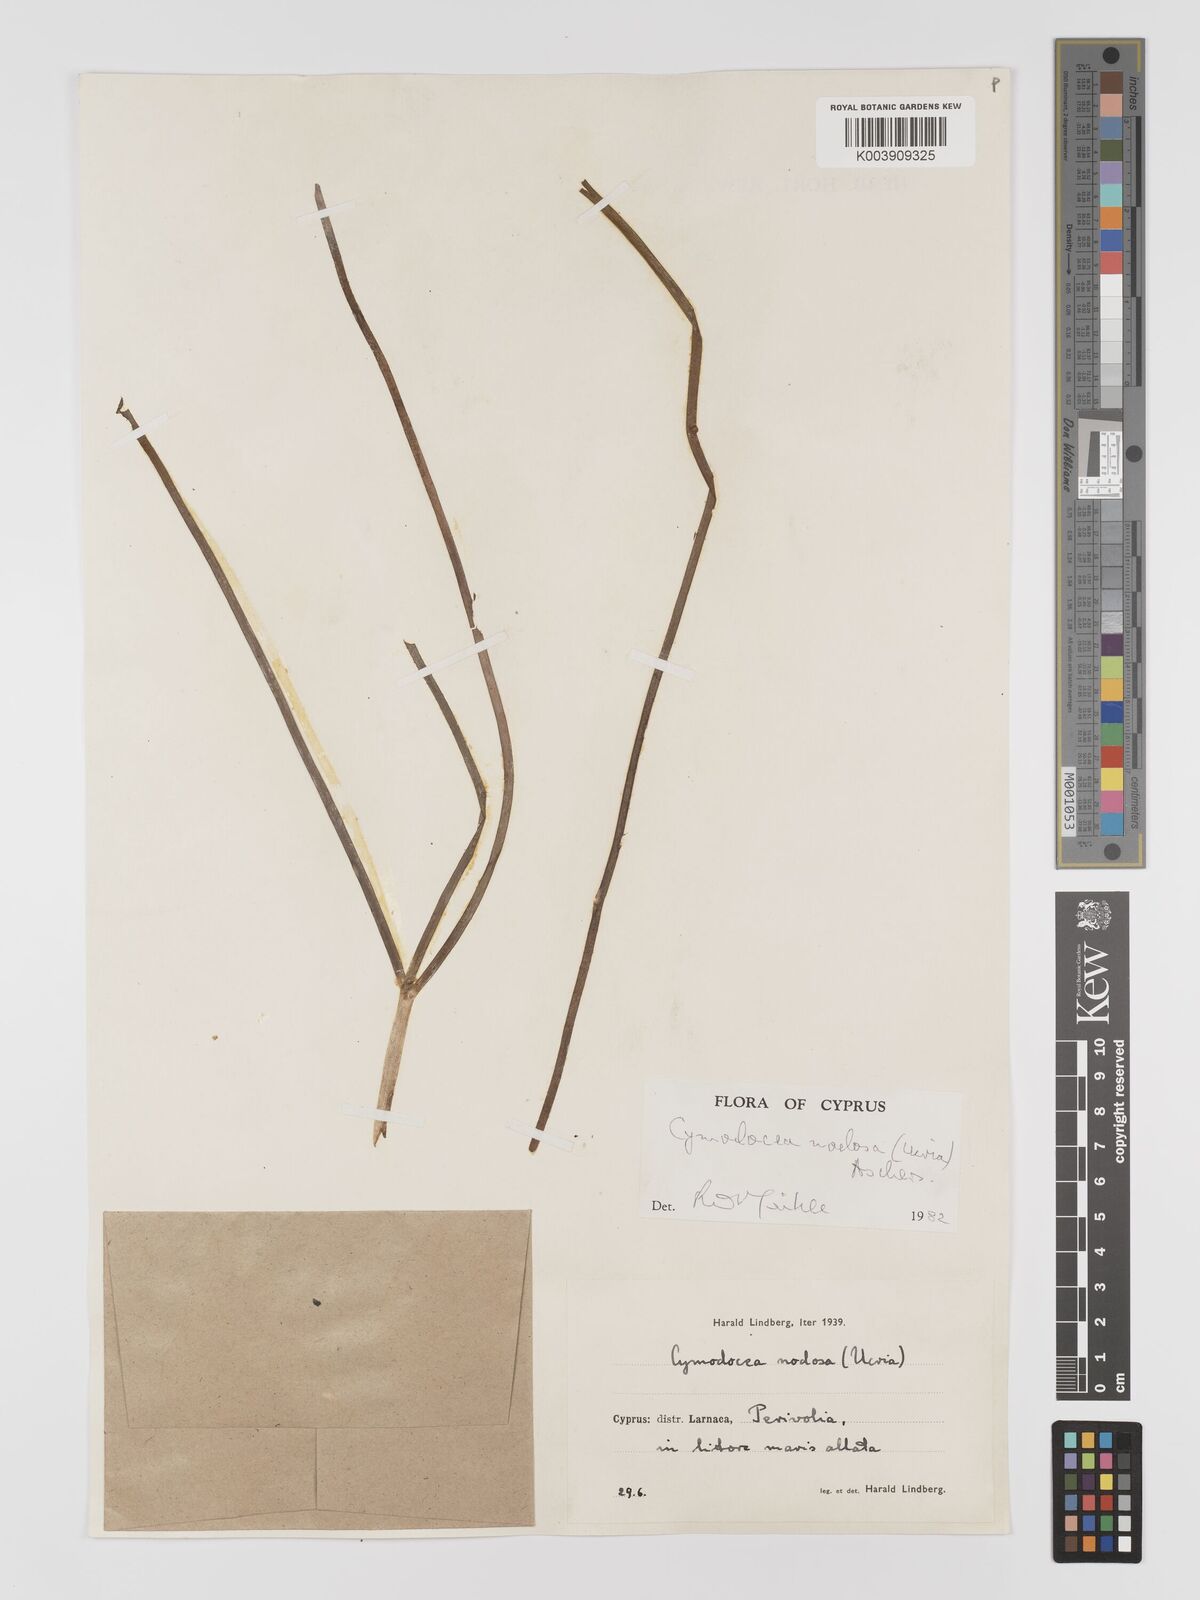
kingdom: Plantae
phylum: Tracheophyta
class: Liliopsida
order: Alismatales
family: Cymodoceaceae
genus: Cymodocea
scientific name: Cymodocea nodosa
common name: Slender seagrass
